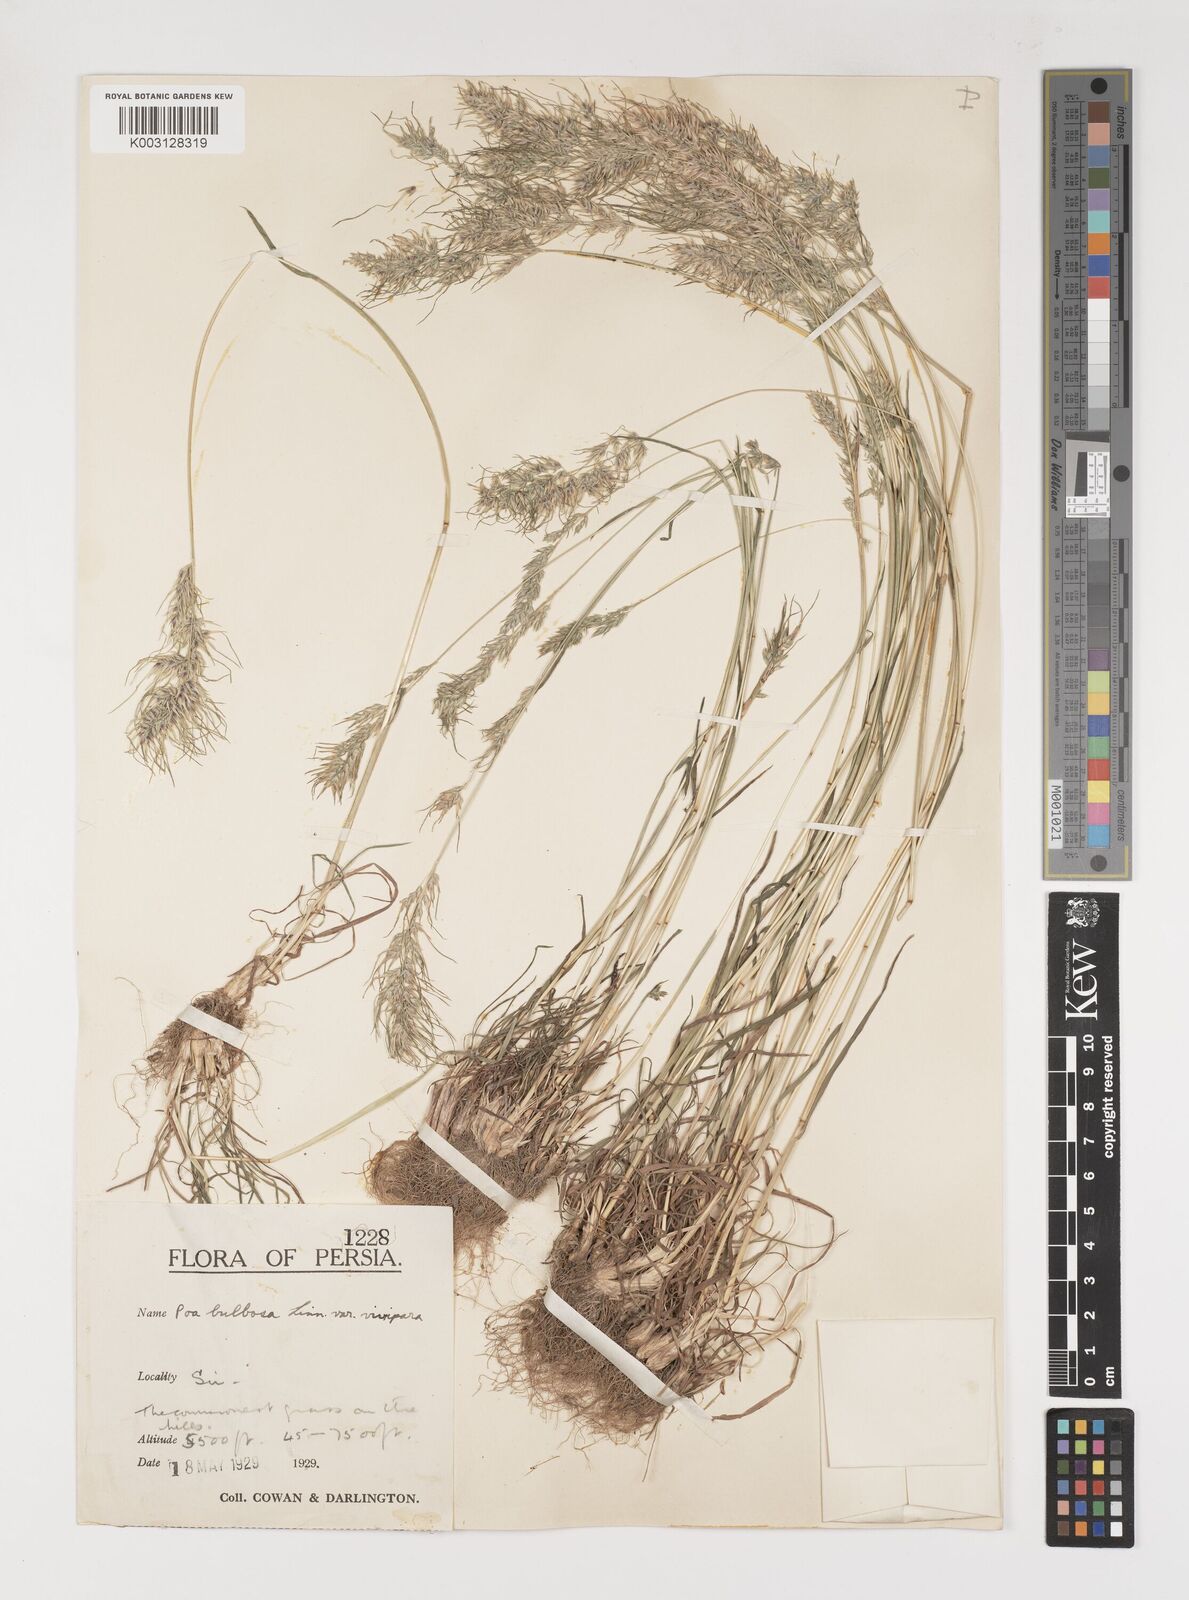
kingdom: Plantae
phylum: Tracheophyta
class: Liliopsida
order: Poales
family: Poaceae
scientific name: Poaceae
